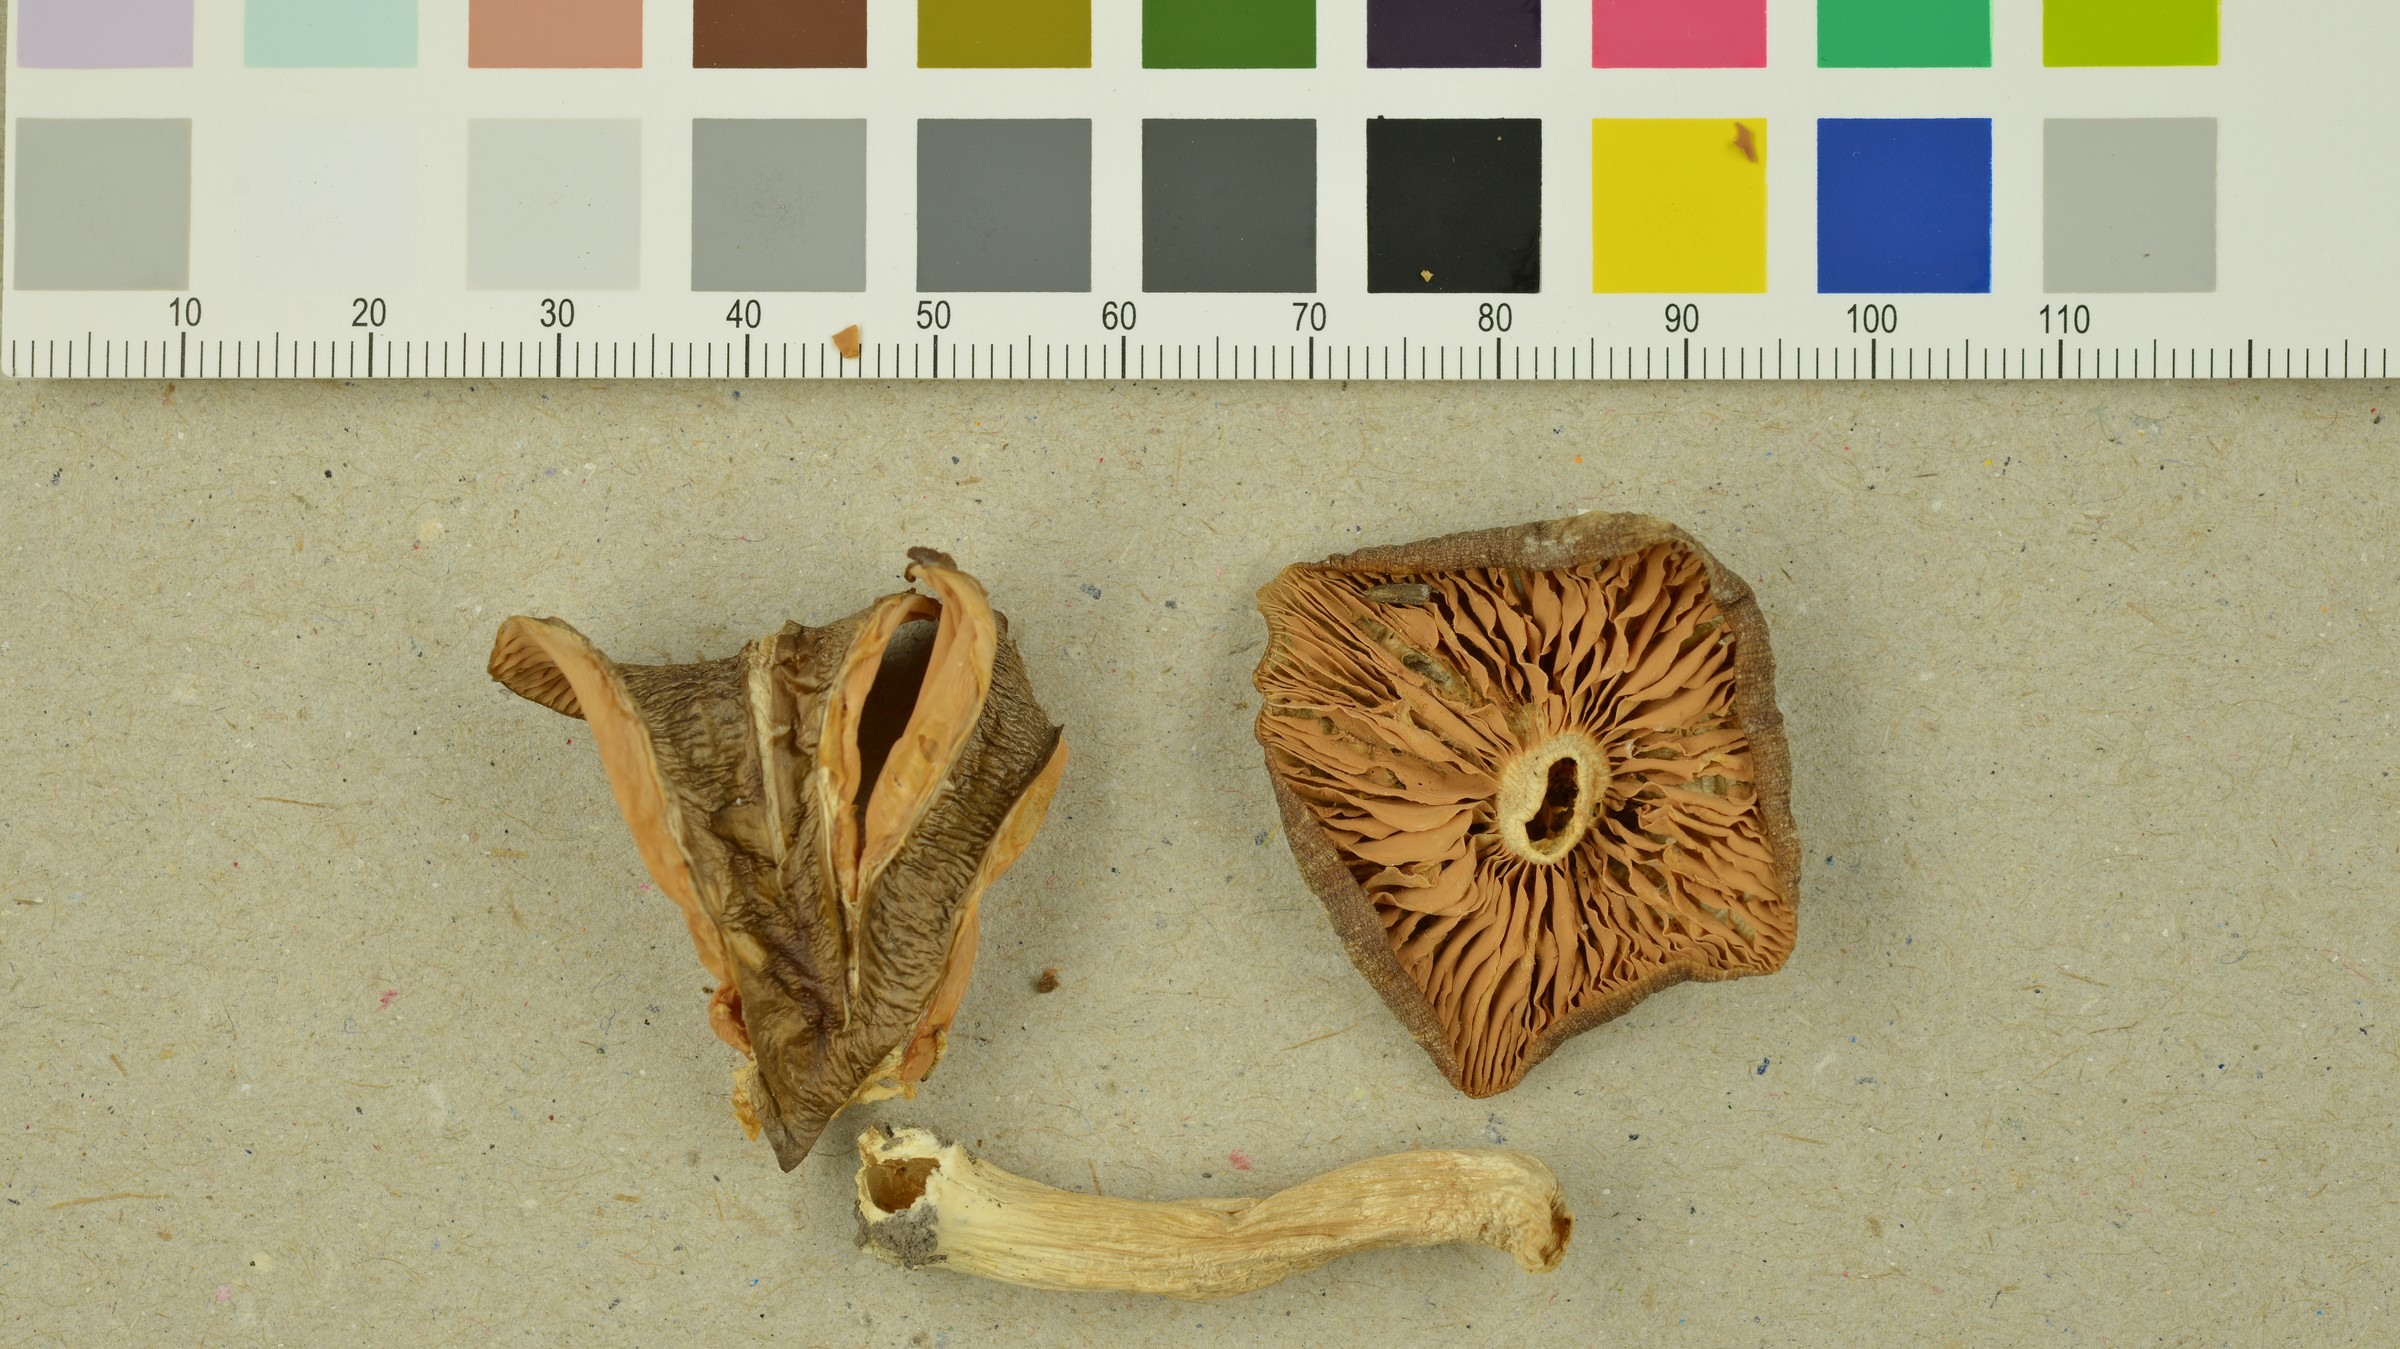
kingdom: Fungi
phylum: Basidiomycota
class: Agaricomycetes
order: Agaricales
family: Entolomataceae
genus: Entoloma
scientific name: Entoloma majaloides
